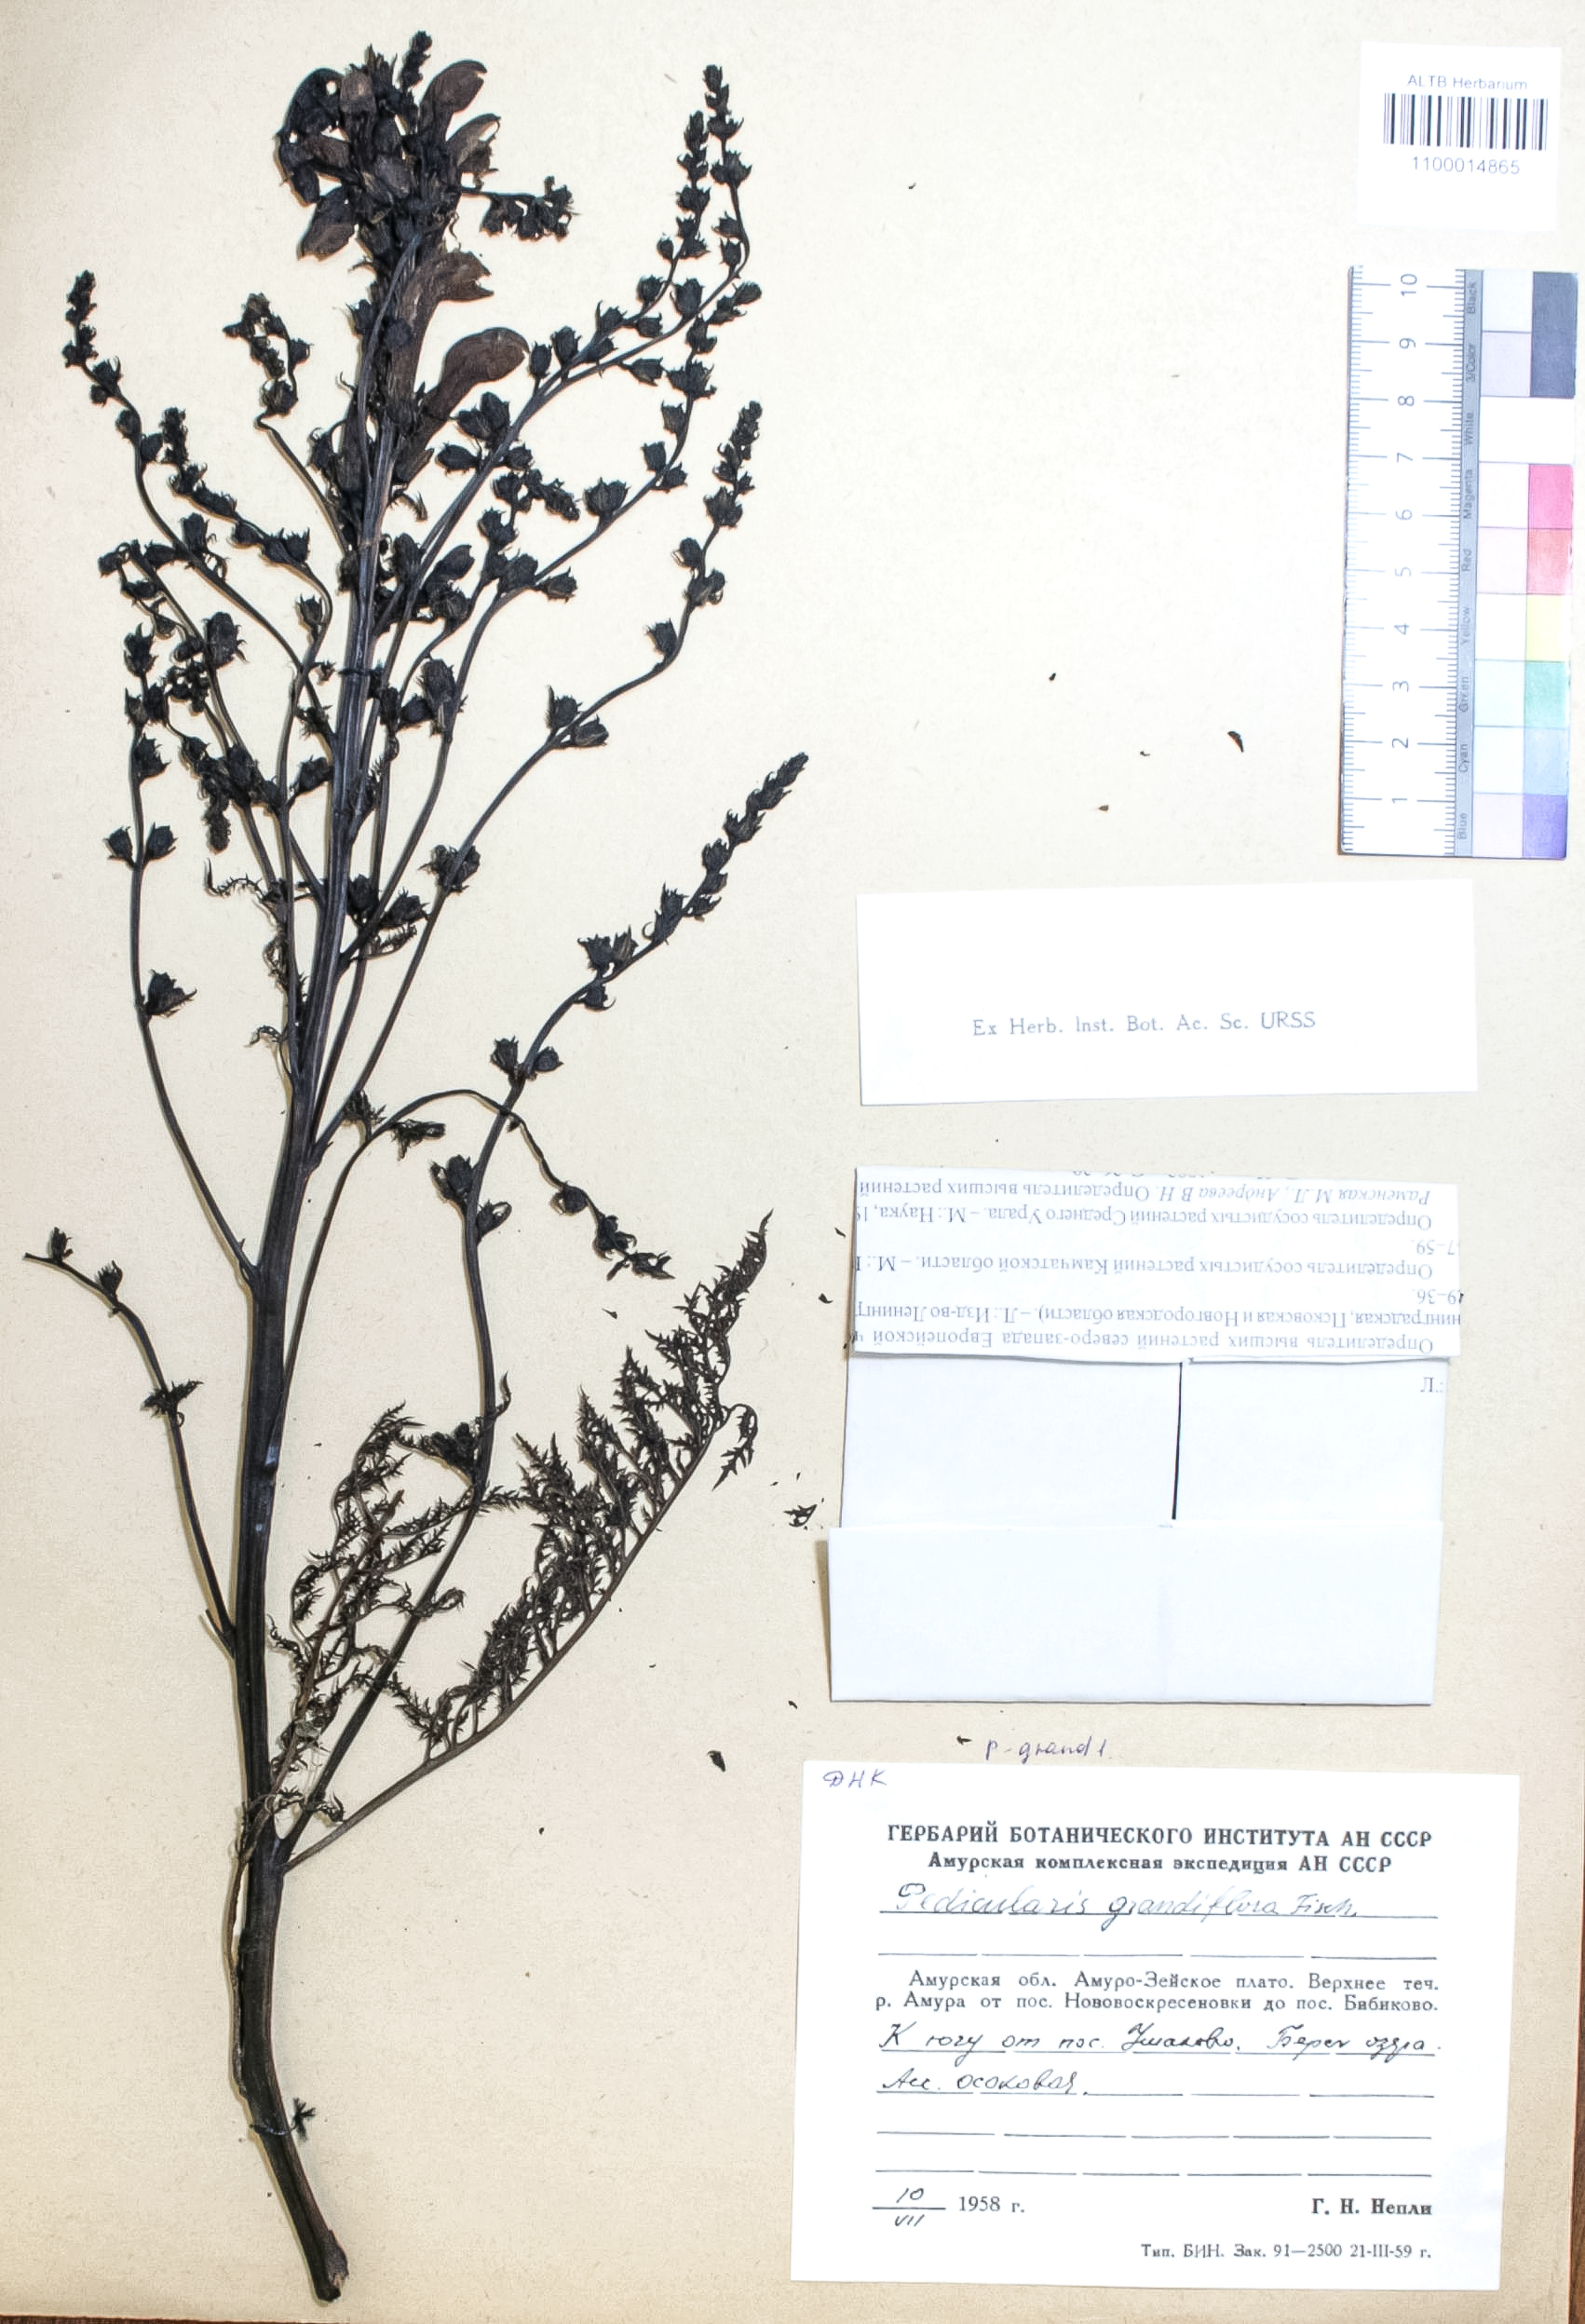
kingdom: Plantae
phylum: Tracheophyta
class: Magnoliopsida
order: Lamiales
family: Orobanchaceae
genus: Pedicularis
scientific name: Pedicularis resupinata
